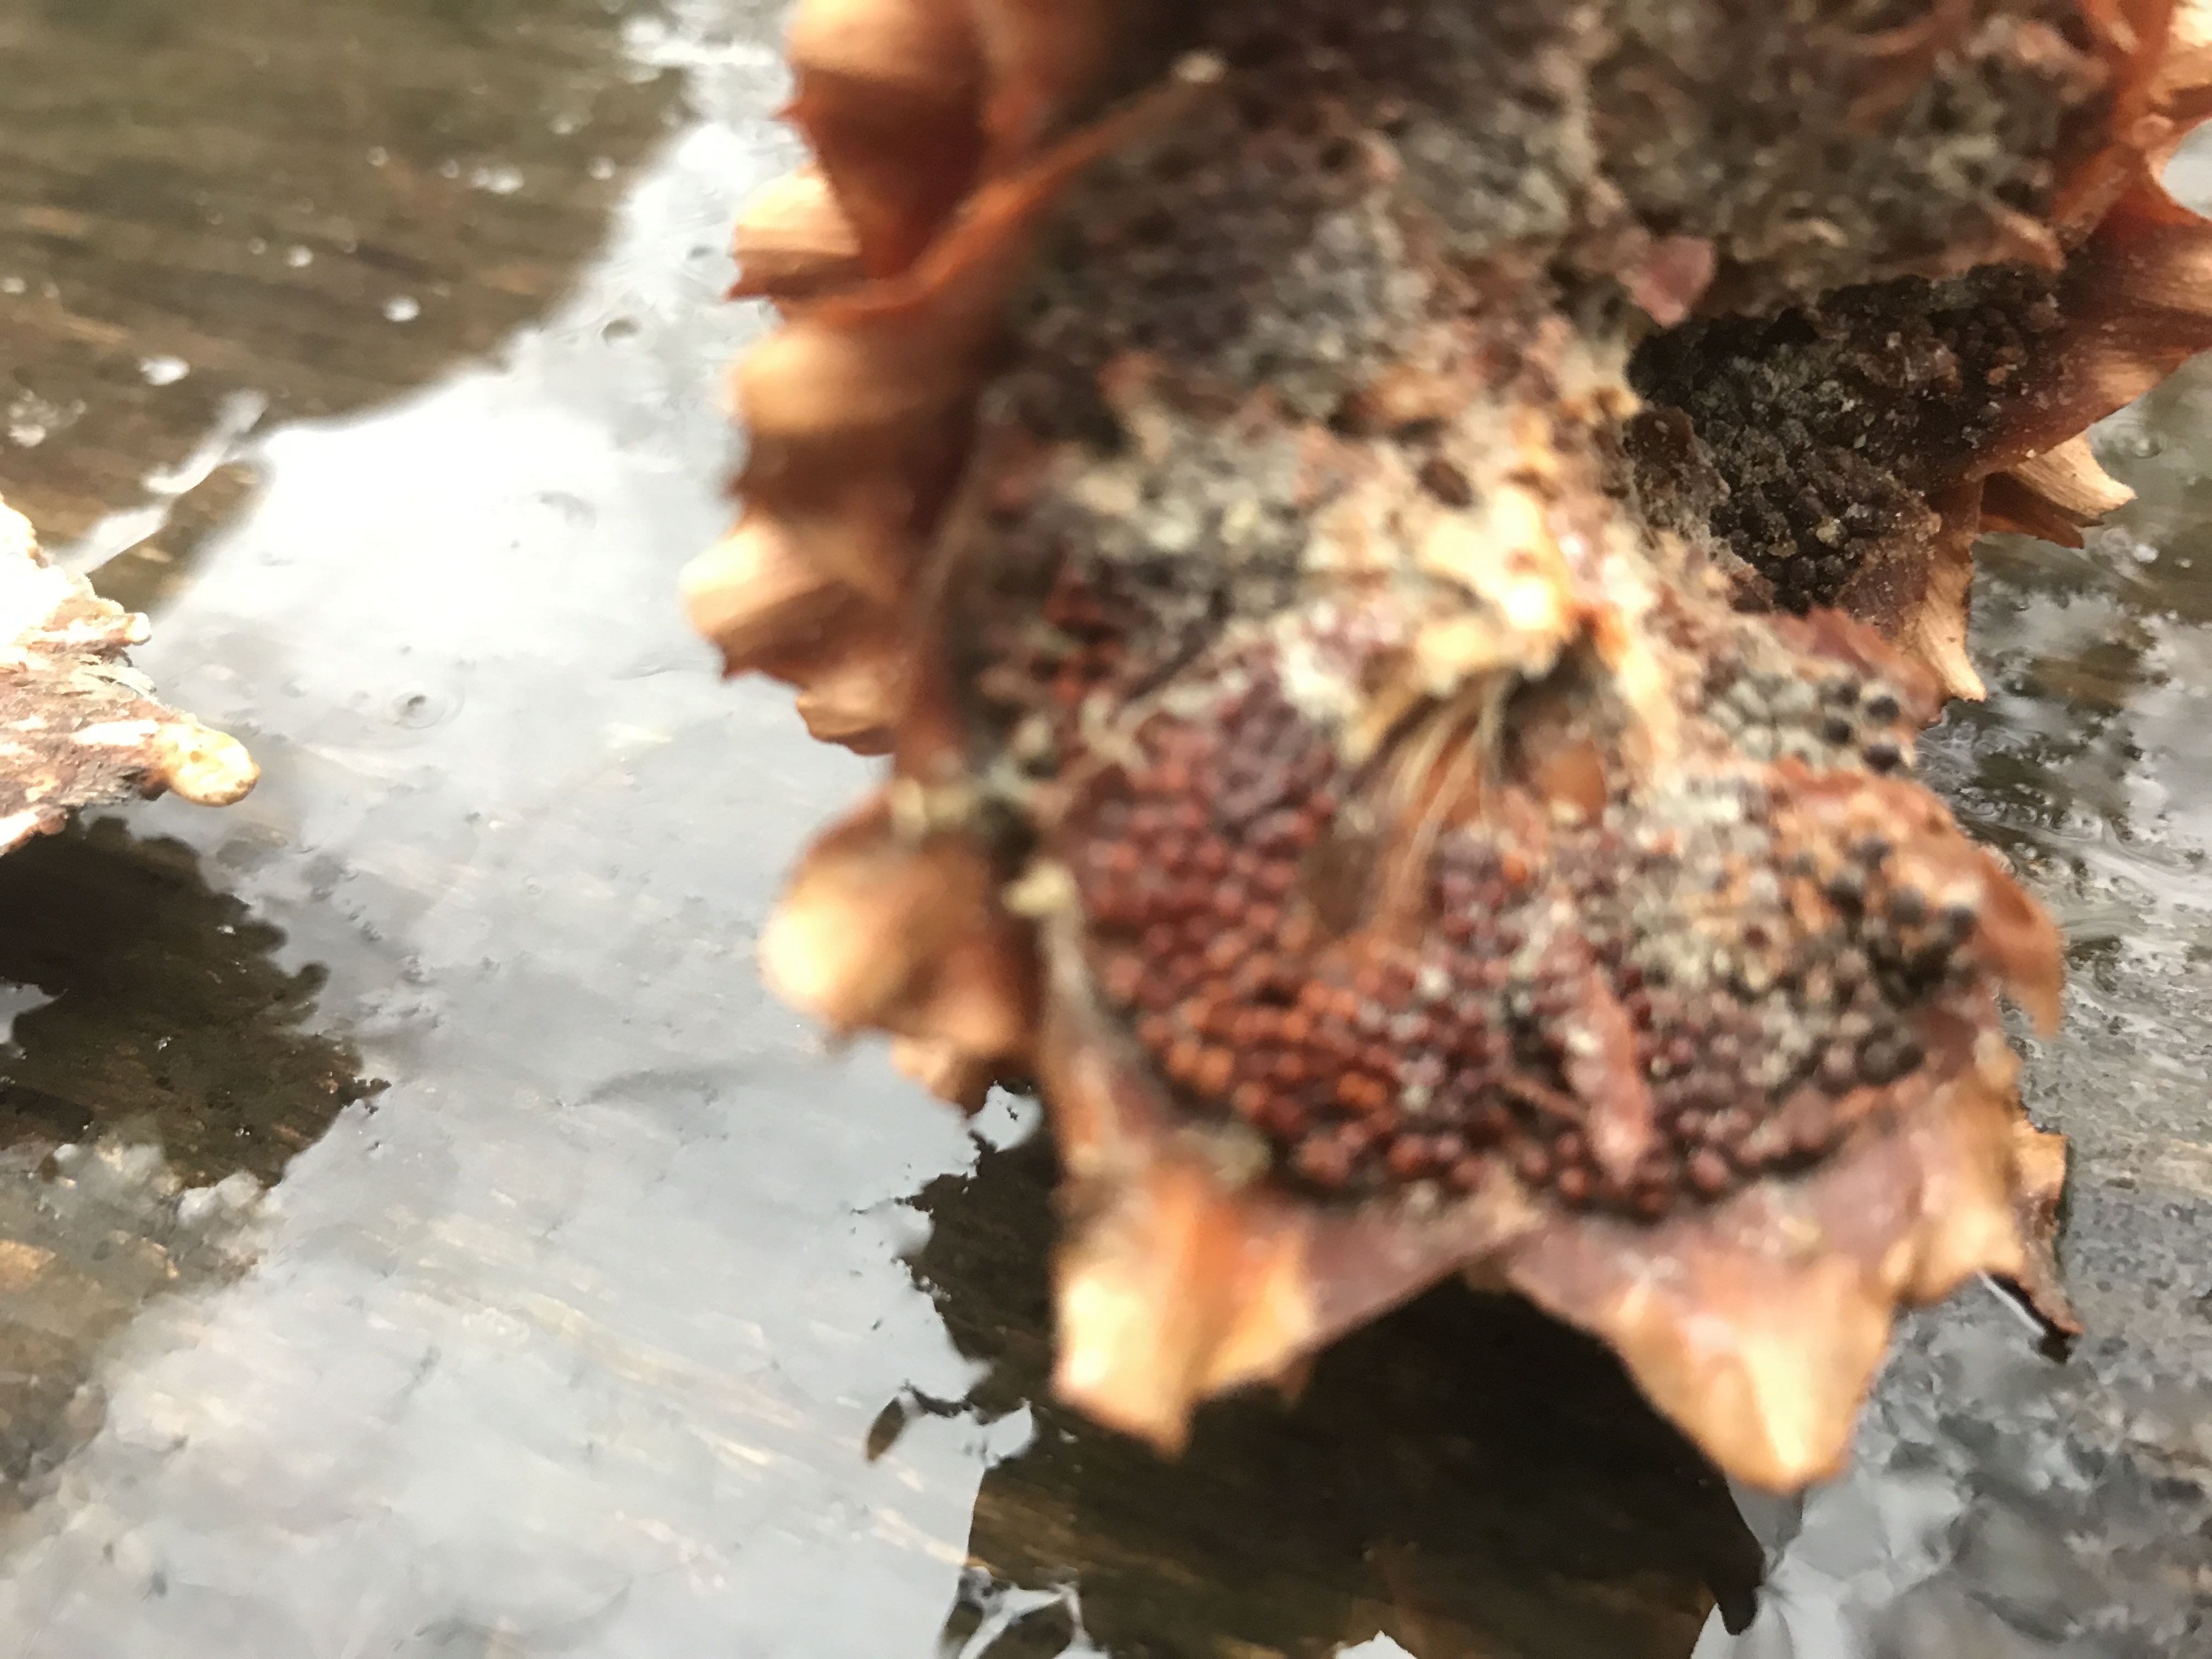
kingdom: Fungi
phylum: Basidiomycota
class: Pucciniomycetes
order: Pucciniales
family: Pucciniastraceae
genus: Thekopsora
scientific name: Thekopsora areolata
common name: grankogle-nålerust
